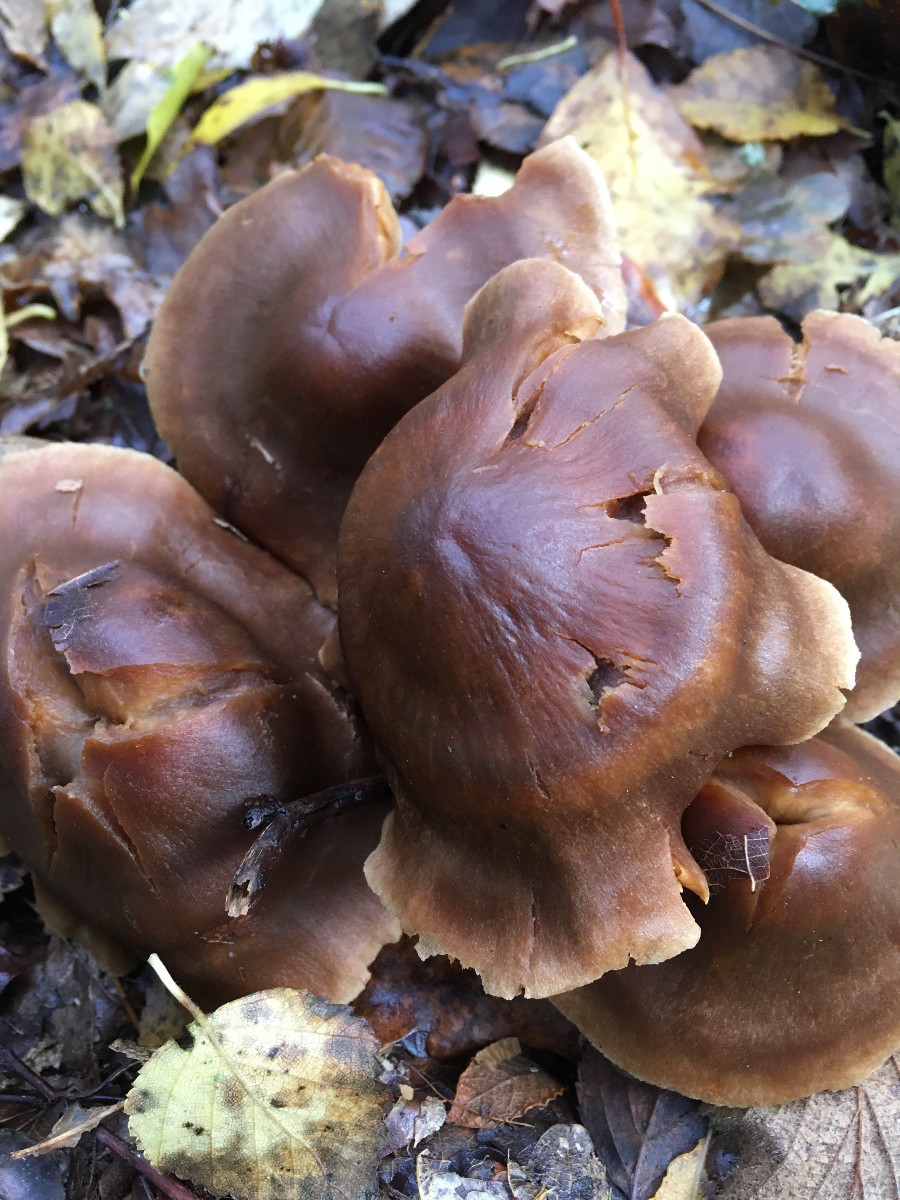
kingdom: Fungi
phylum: Basidiomycota
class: Agaricomycetes
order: Agaricales
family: Cortinariaceae
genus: Cortinarius
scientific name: Cortinarius
